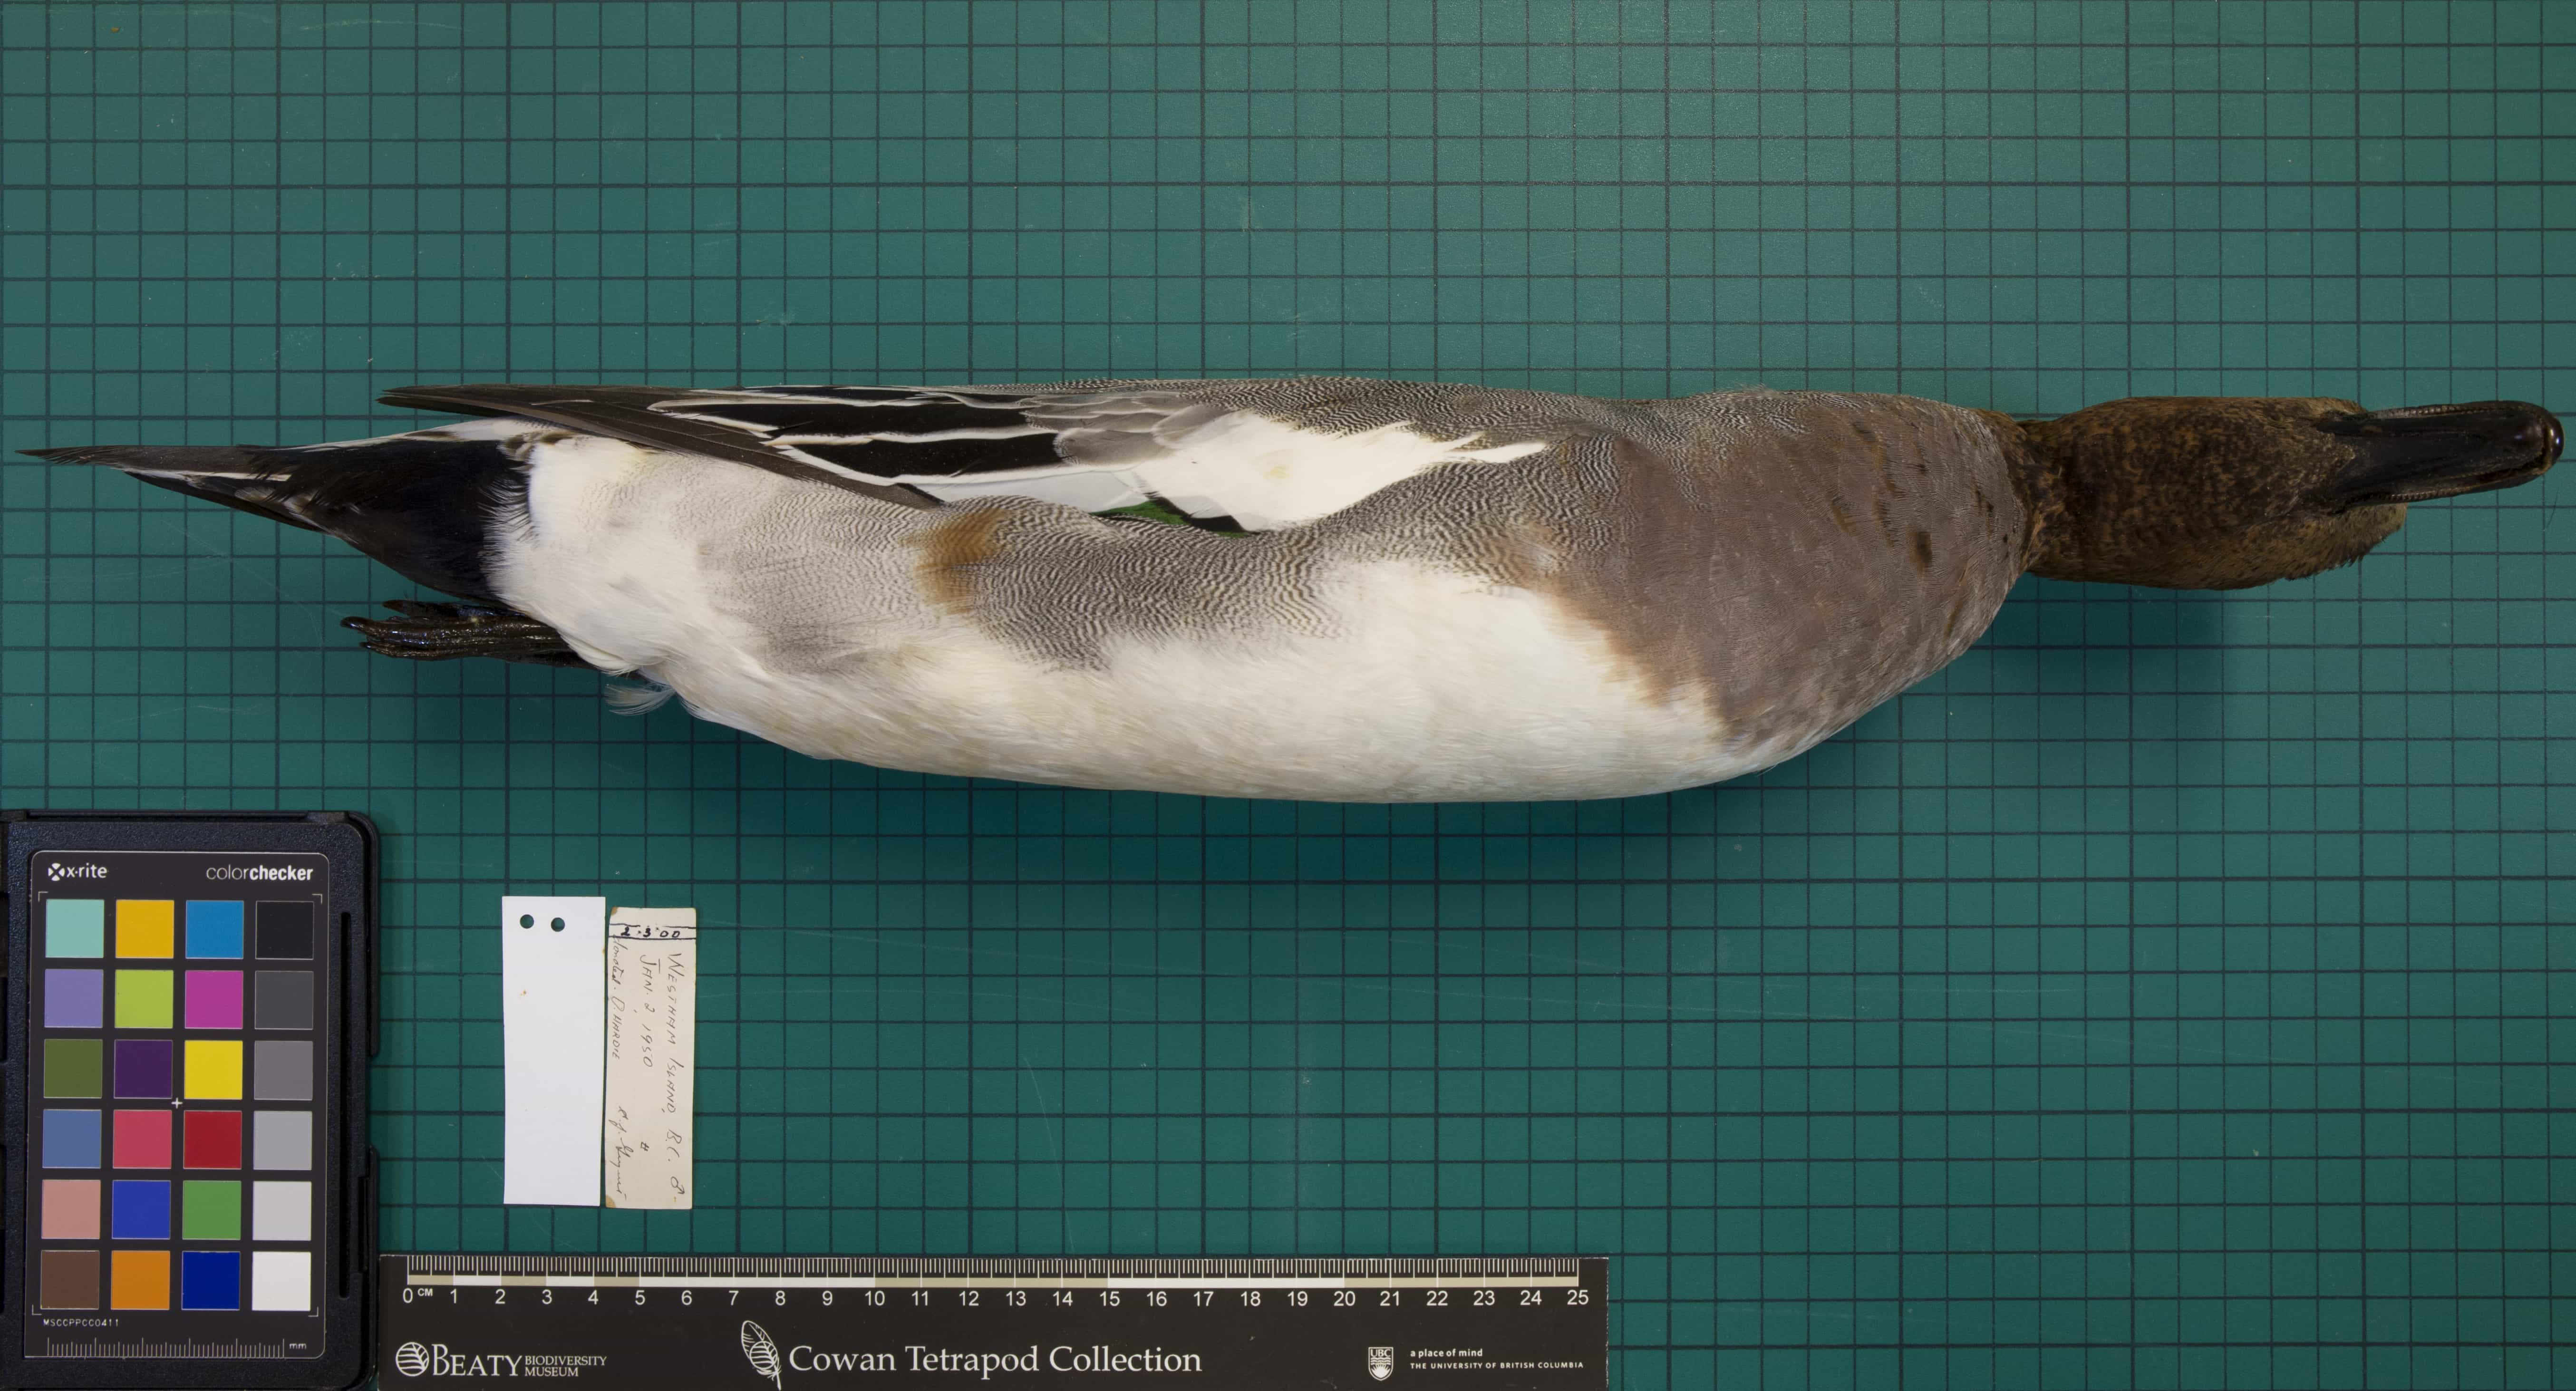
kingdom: Animalia
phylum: Chordata
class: Aves
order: Anseriformes
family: Anatidae
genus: Mareca
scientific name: Mareca penelope
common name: Eurasian Wigeon
